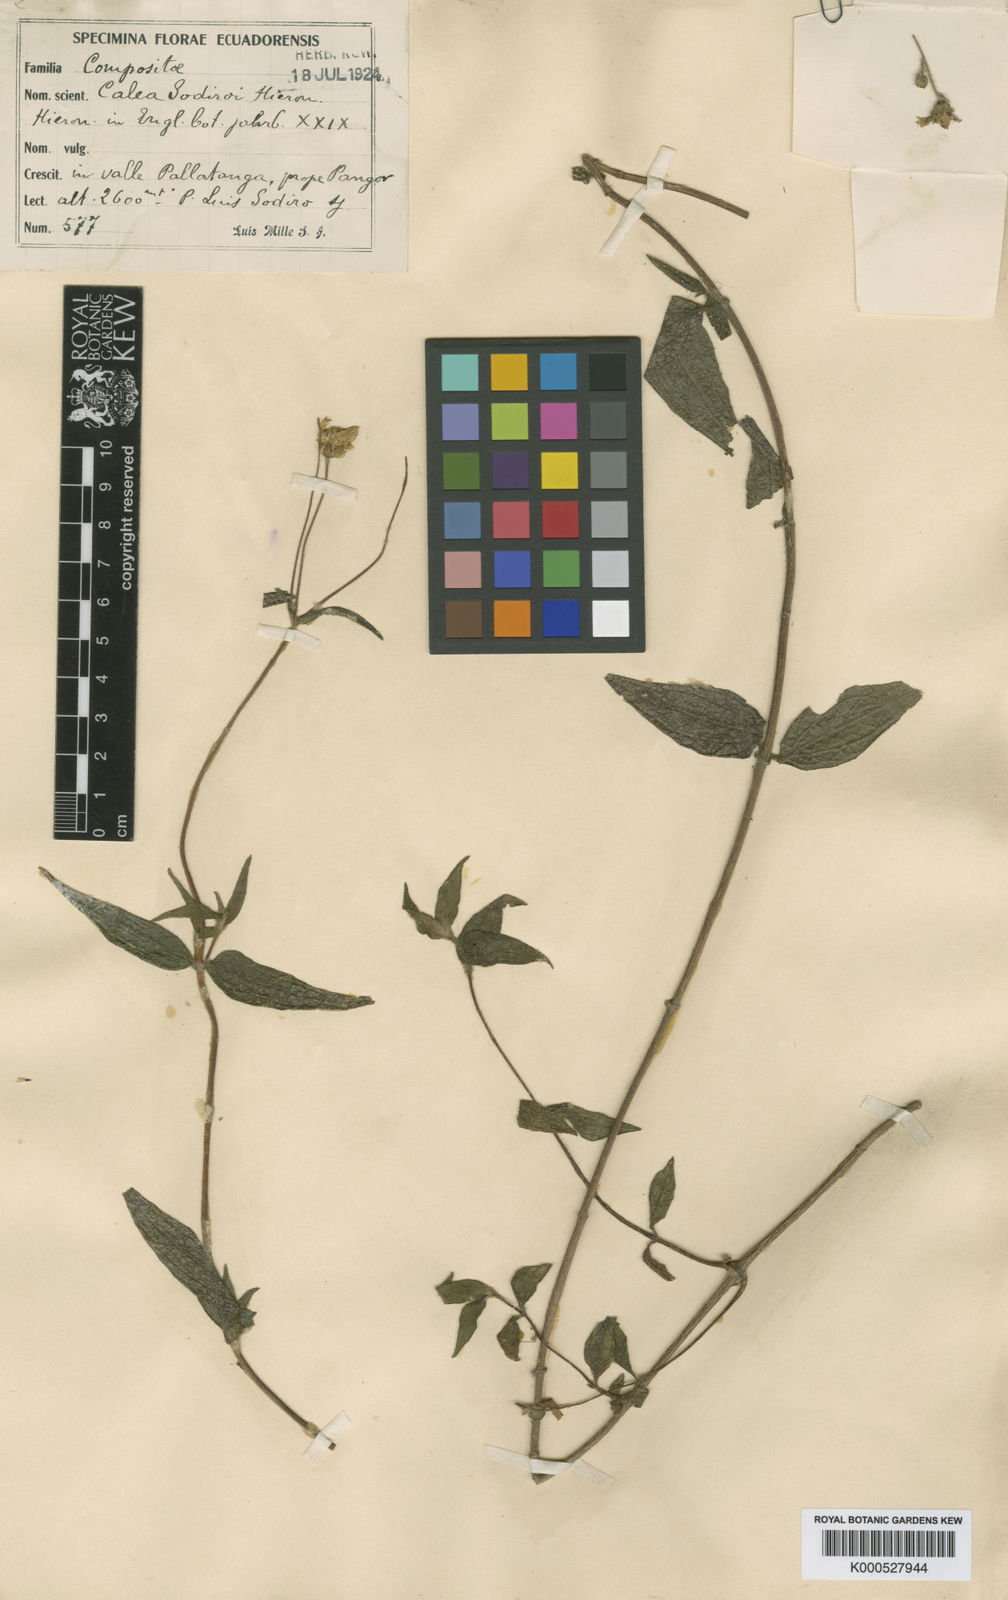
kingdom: Plantae
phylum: Tracheophyta
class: Magnoliopsida
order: Asterales
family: Asteraceae
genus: Alloispermum
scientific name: Alloispermum sodiroi
